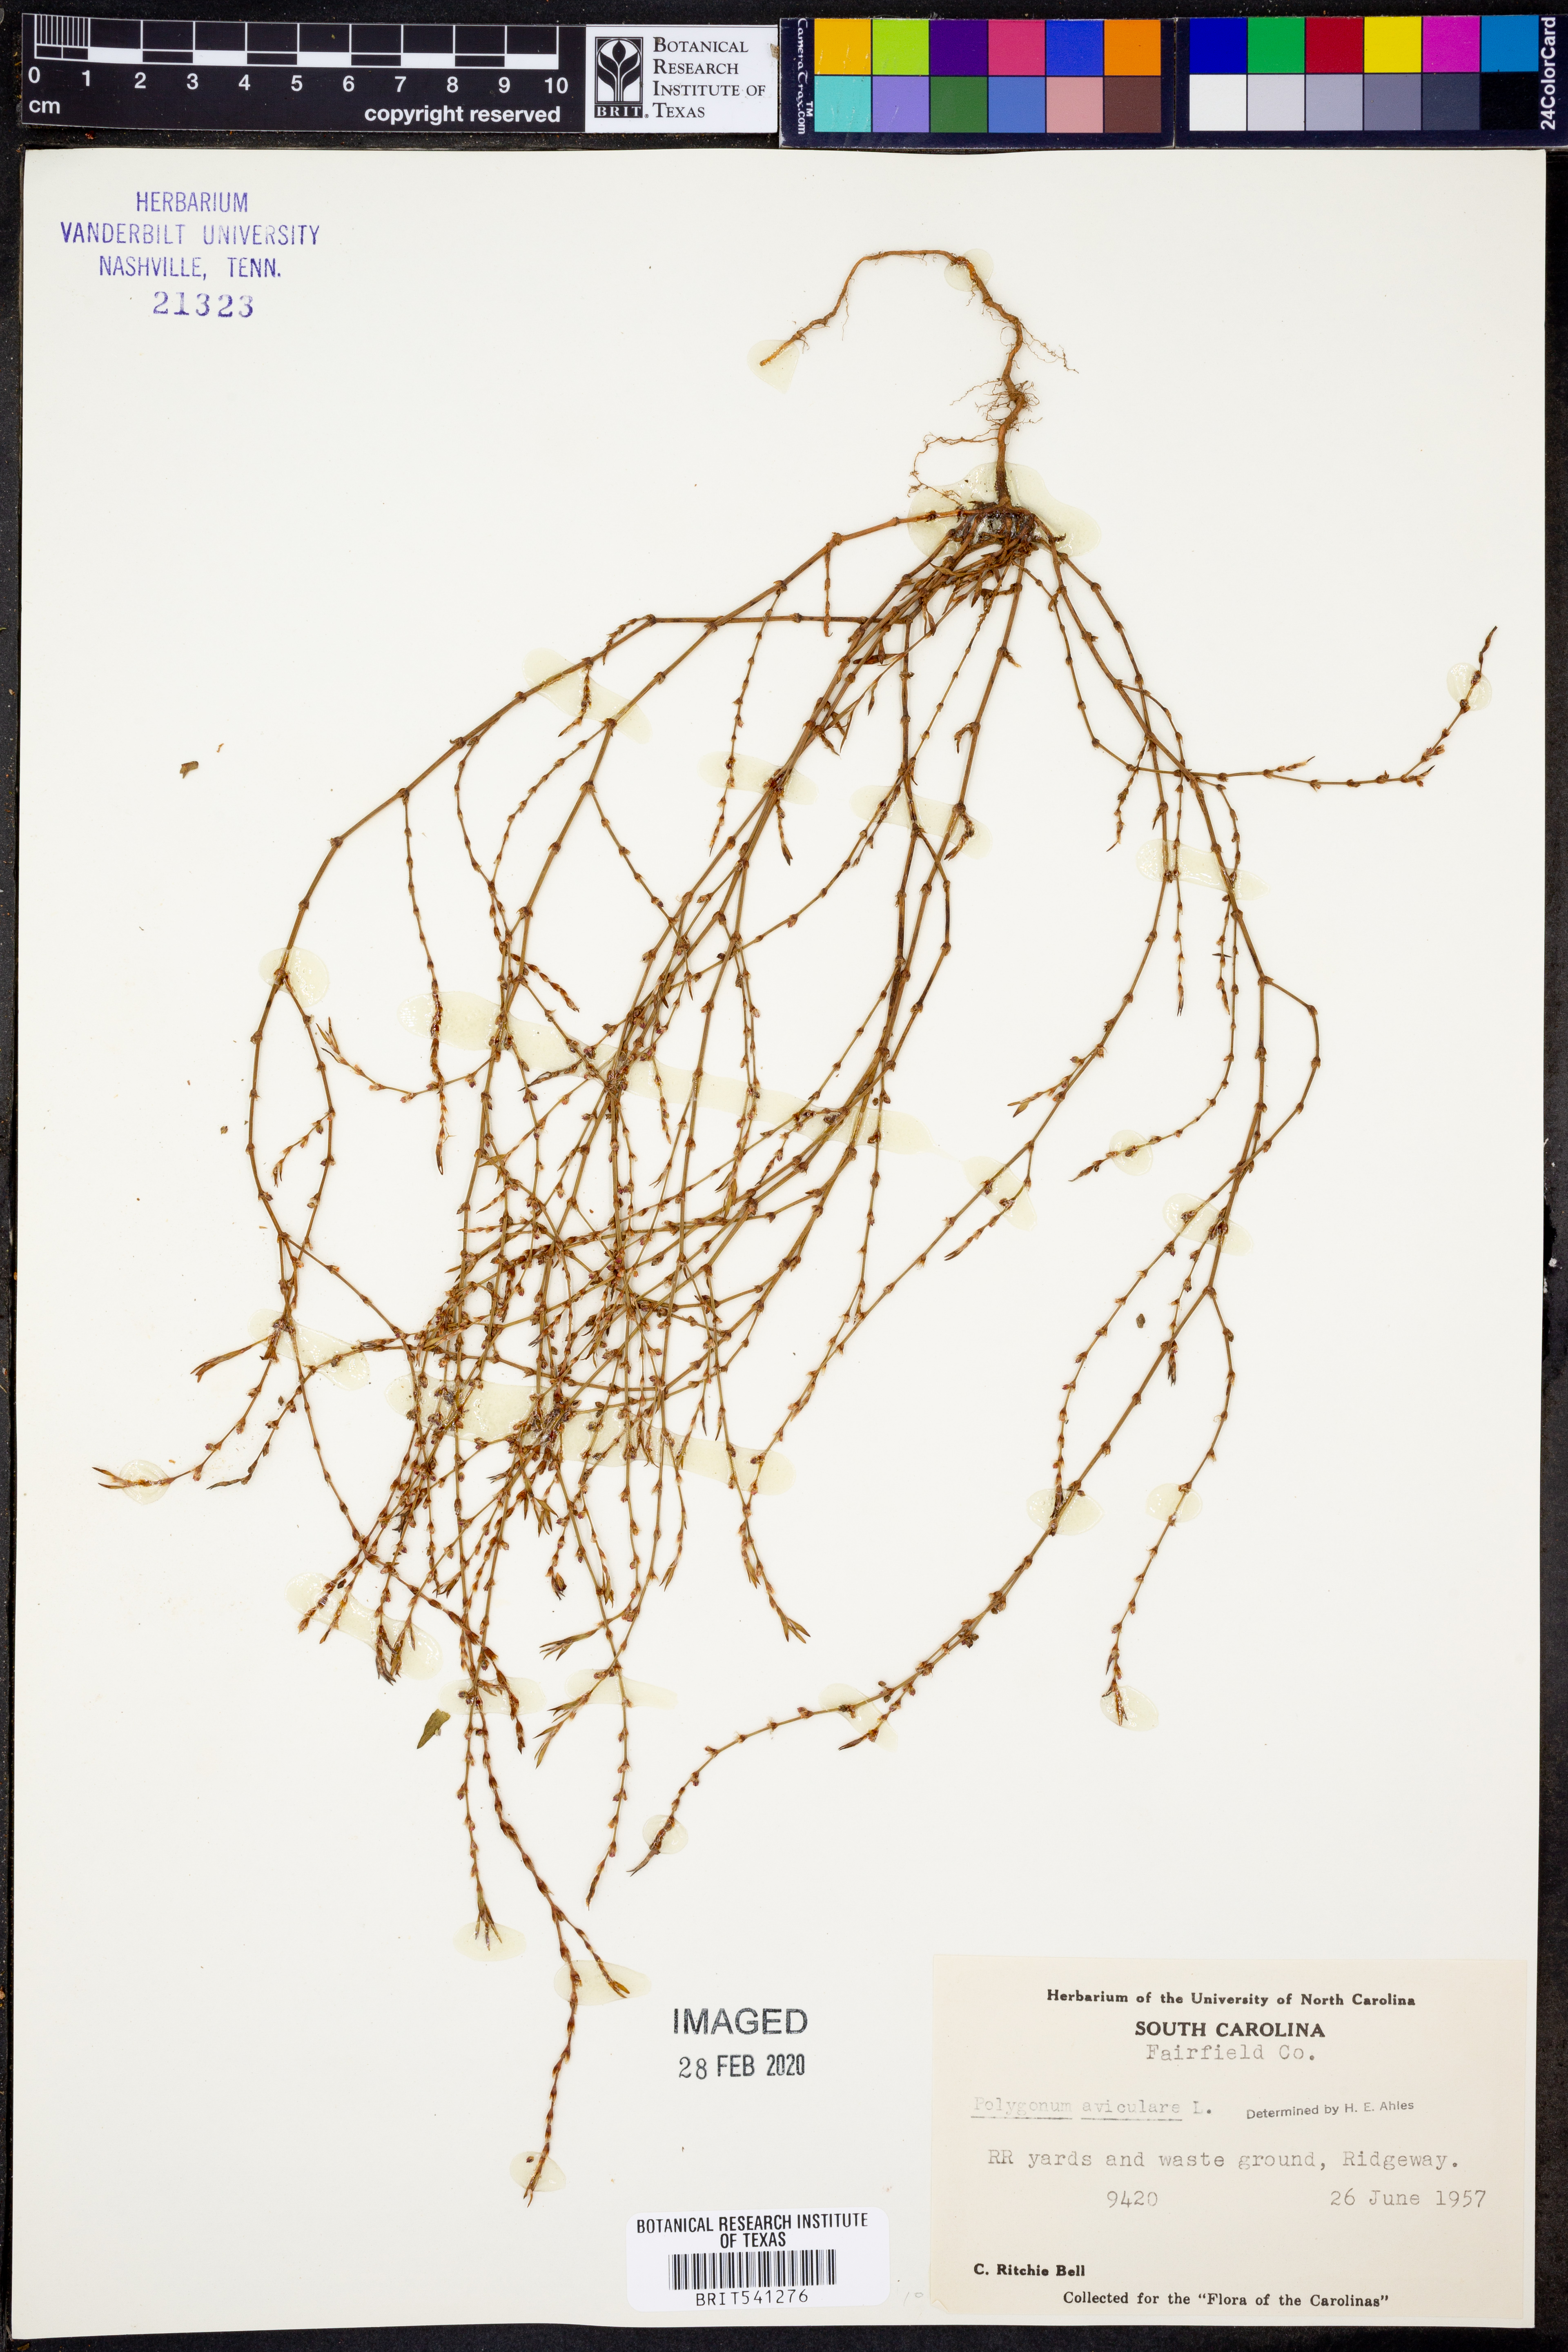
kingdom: Plantae
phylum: Tracheophyta
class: Magnoliopsida
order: Caryophyllales
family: Polygonaceae
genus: Polygonum
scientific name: Polygonum aviculare
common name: Prostrate knotweed
